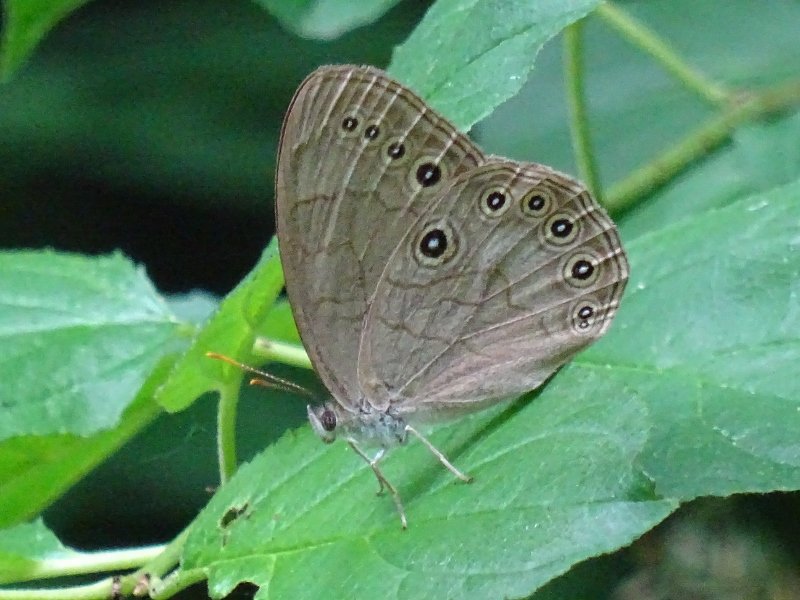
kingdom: Animalia
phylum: Arthropoda
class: Insecta
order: Lepidoptera
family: Nymphalidae
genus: Lethe
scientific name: Lethe eurydice
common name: Appalachian Eyed Brown
